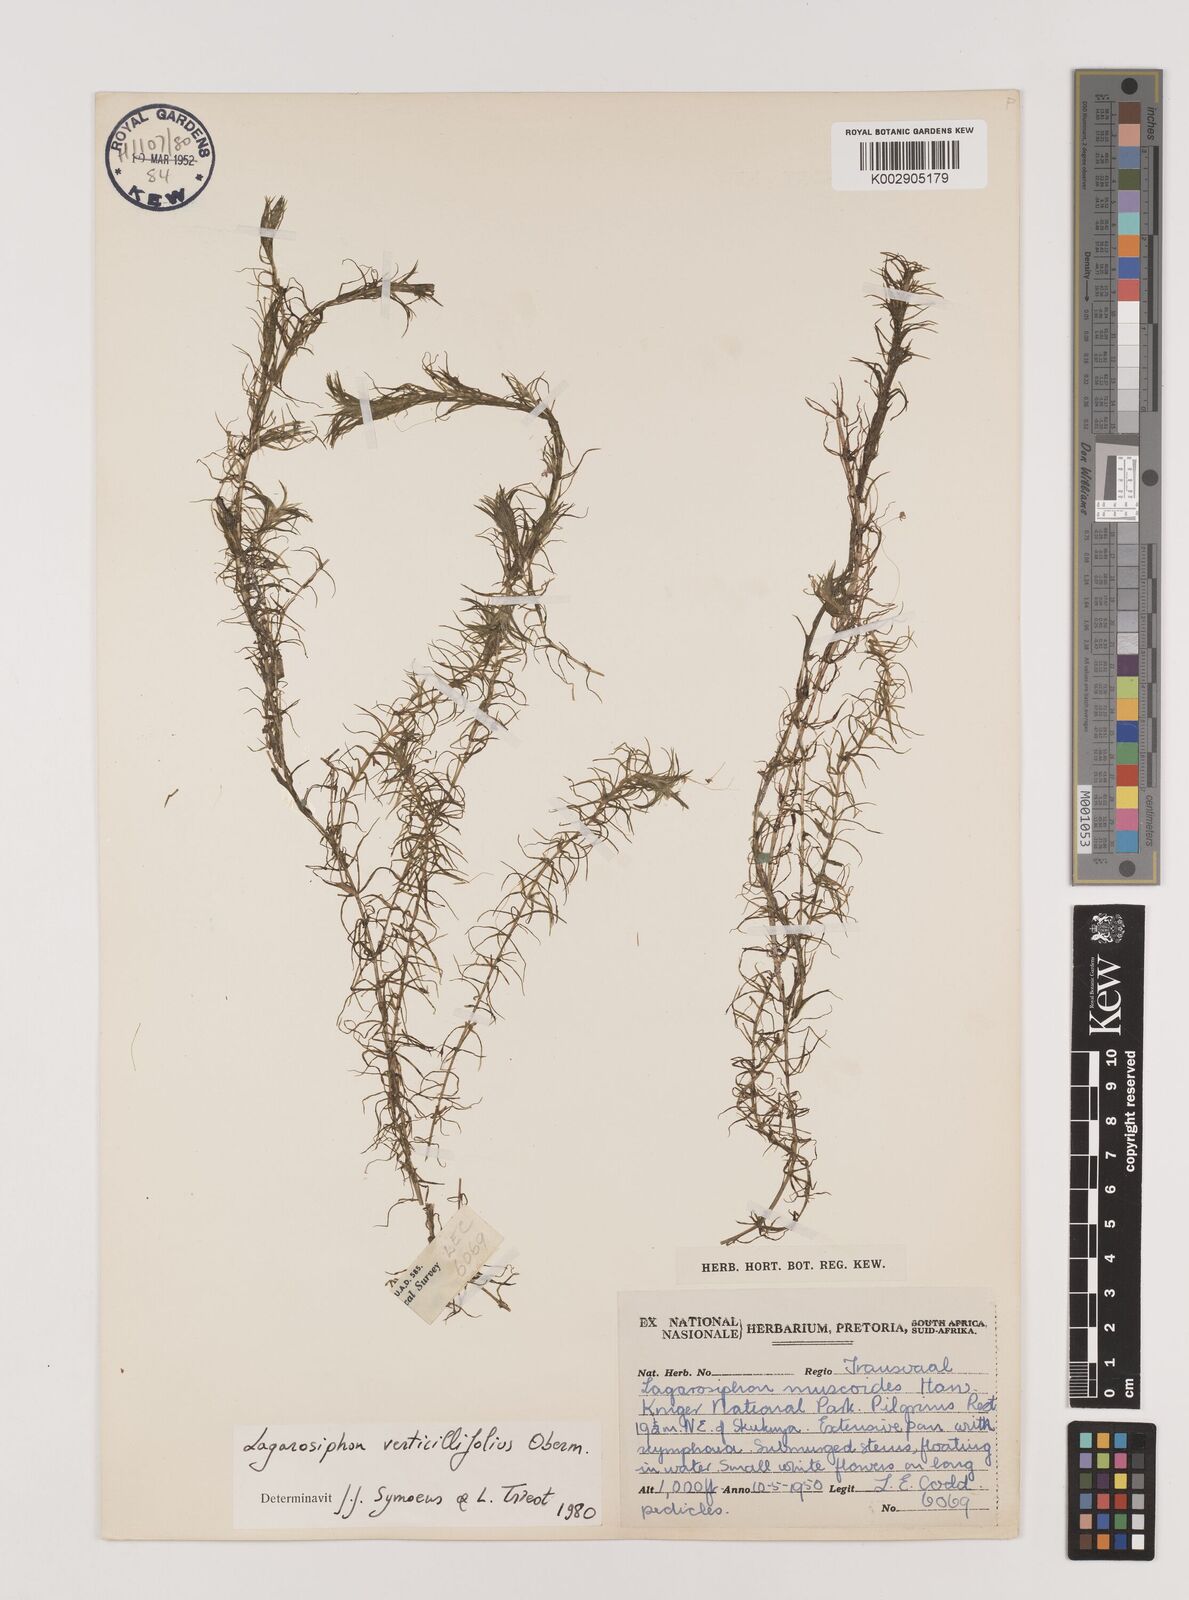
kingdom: Plantae
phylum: Tracheophyta
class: Liliopsida
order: Alismatales
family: Hydrocharitaceae
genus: Lagarosiphon
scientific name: Lagarosiphon verticillifolius
